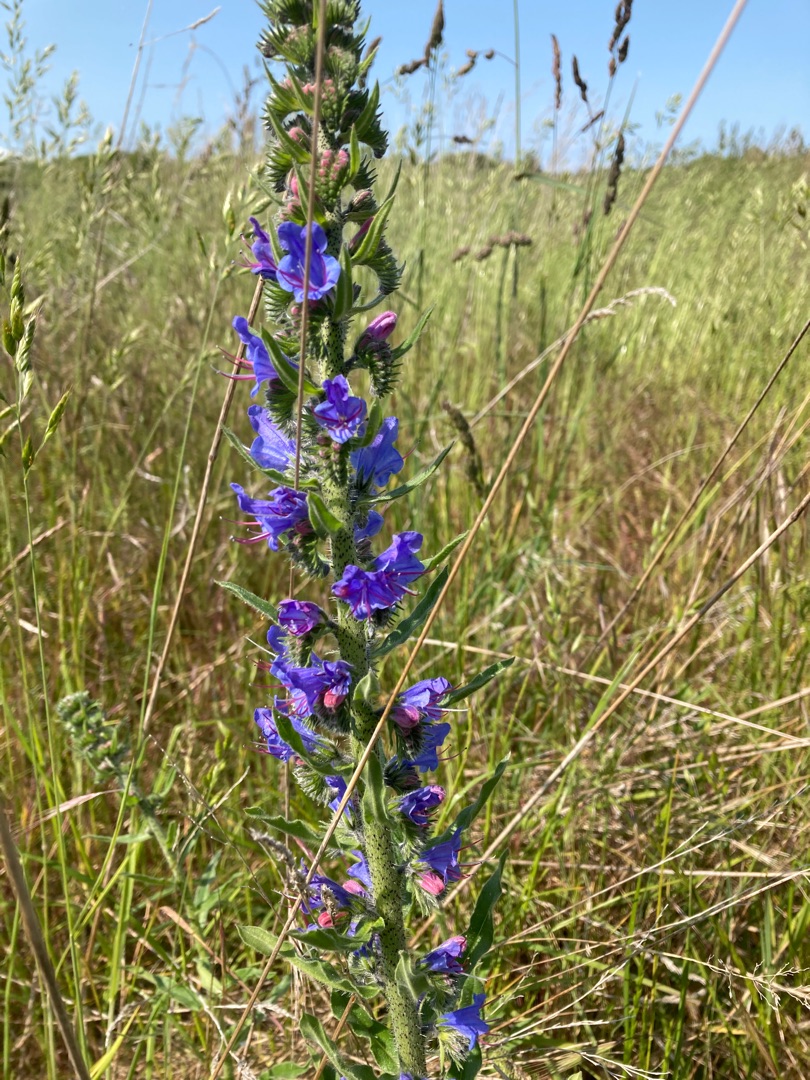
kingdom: Plantae
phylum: Tracheophyta
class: Magnoliopsida
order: Boraginales
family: Boraginaceae
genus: Echium
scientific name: Echium vulgare
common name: Slangehoved
